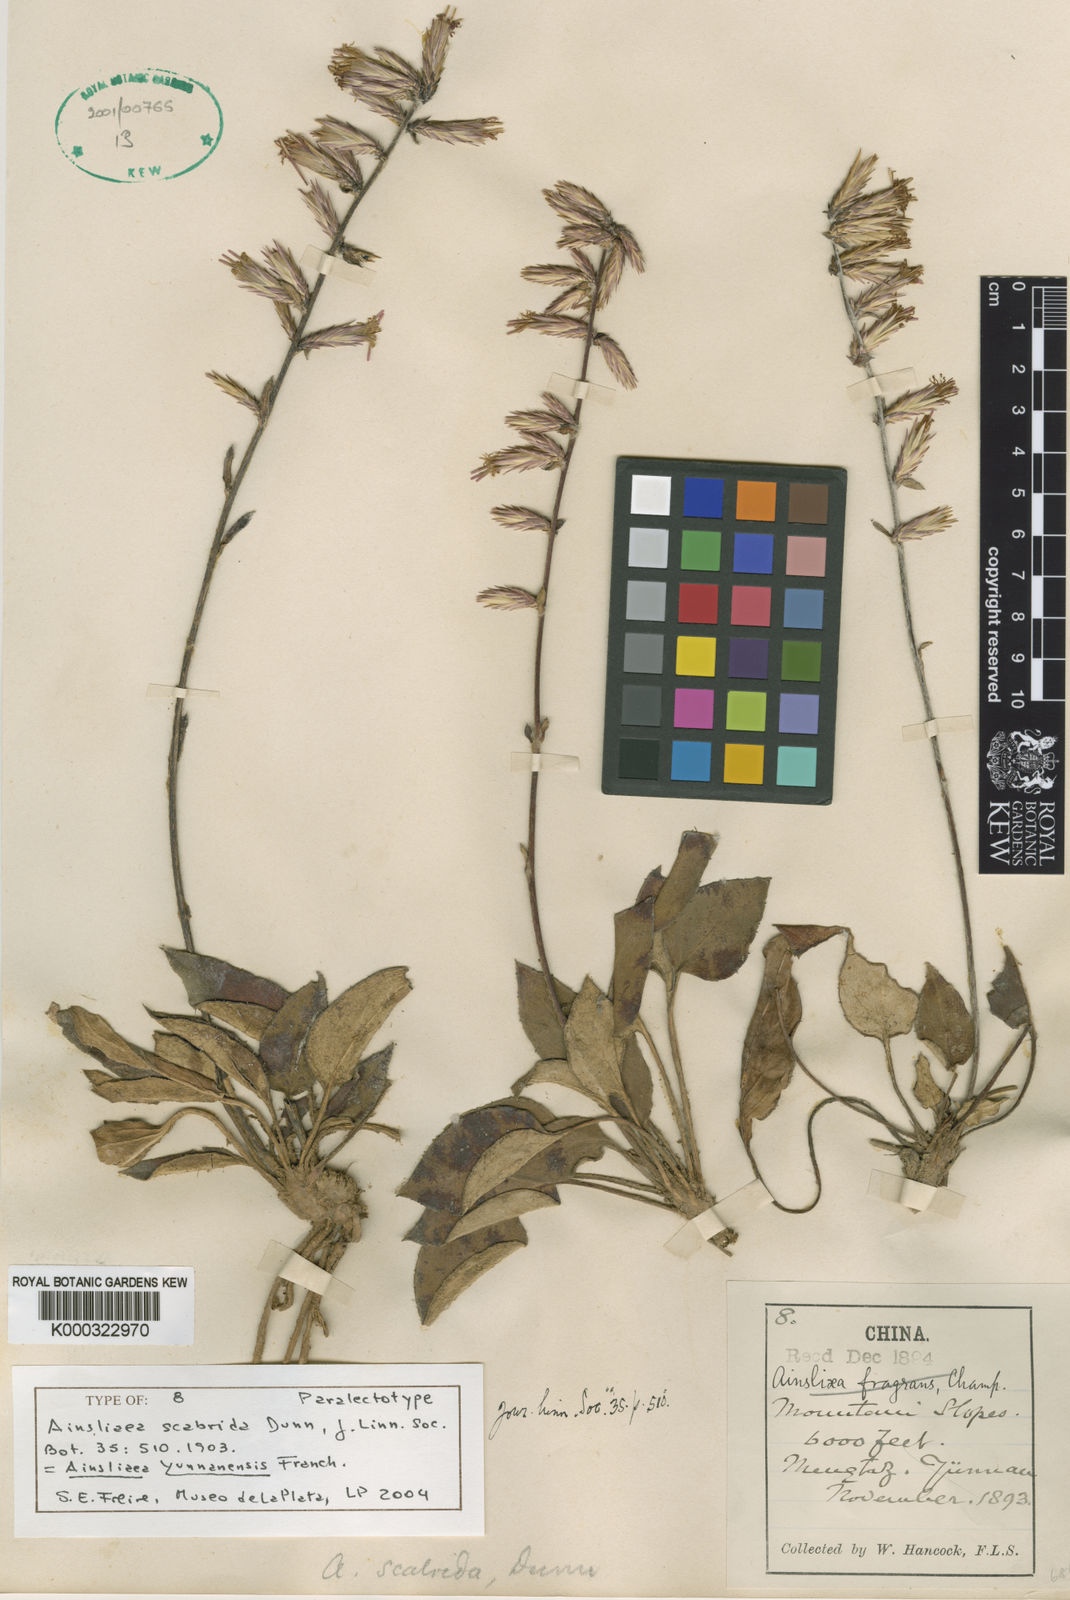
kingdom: Plantae
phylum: Tracheophyta
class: Magnoliopsida
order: Asterales
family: Asteraceae
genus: Ainsliaea
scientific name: Ainsliaea yunnanensis
